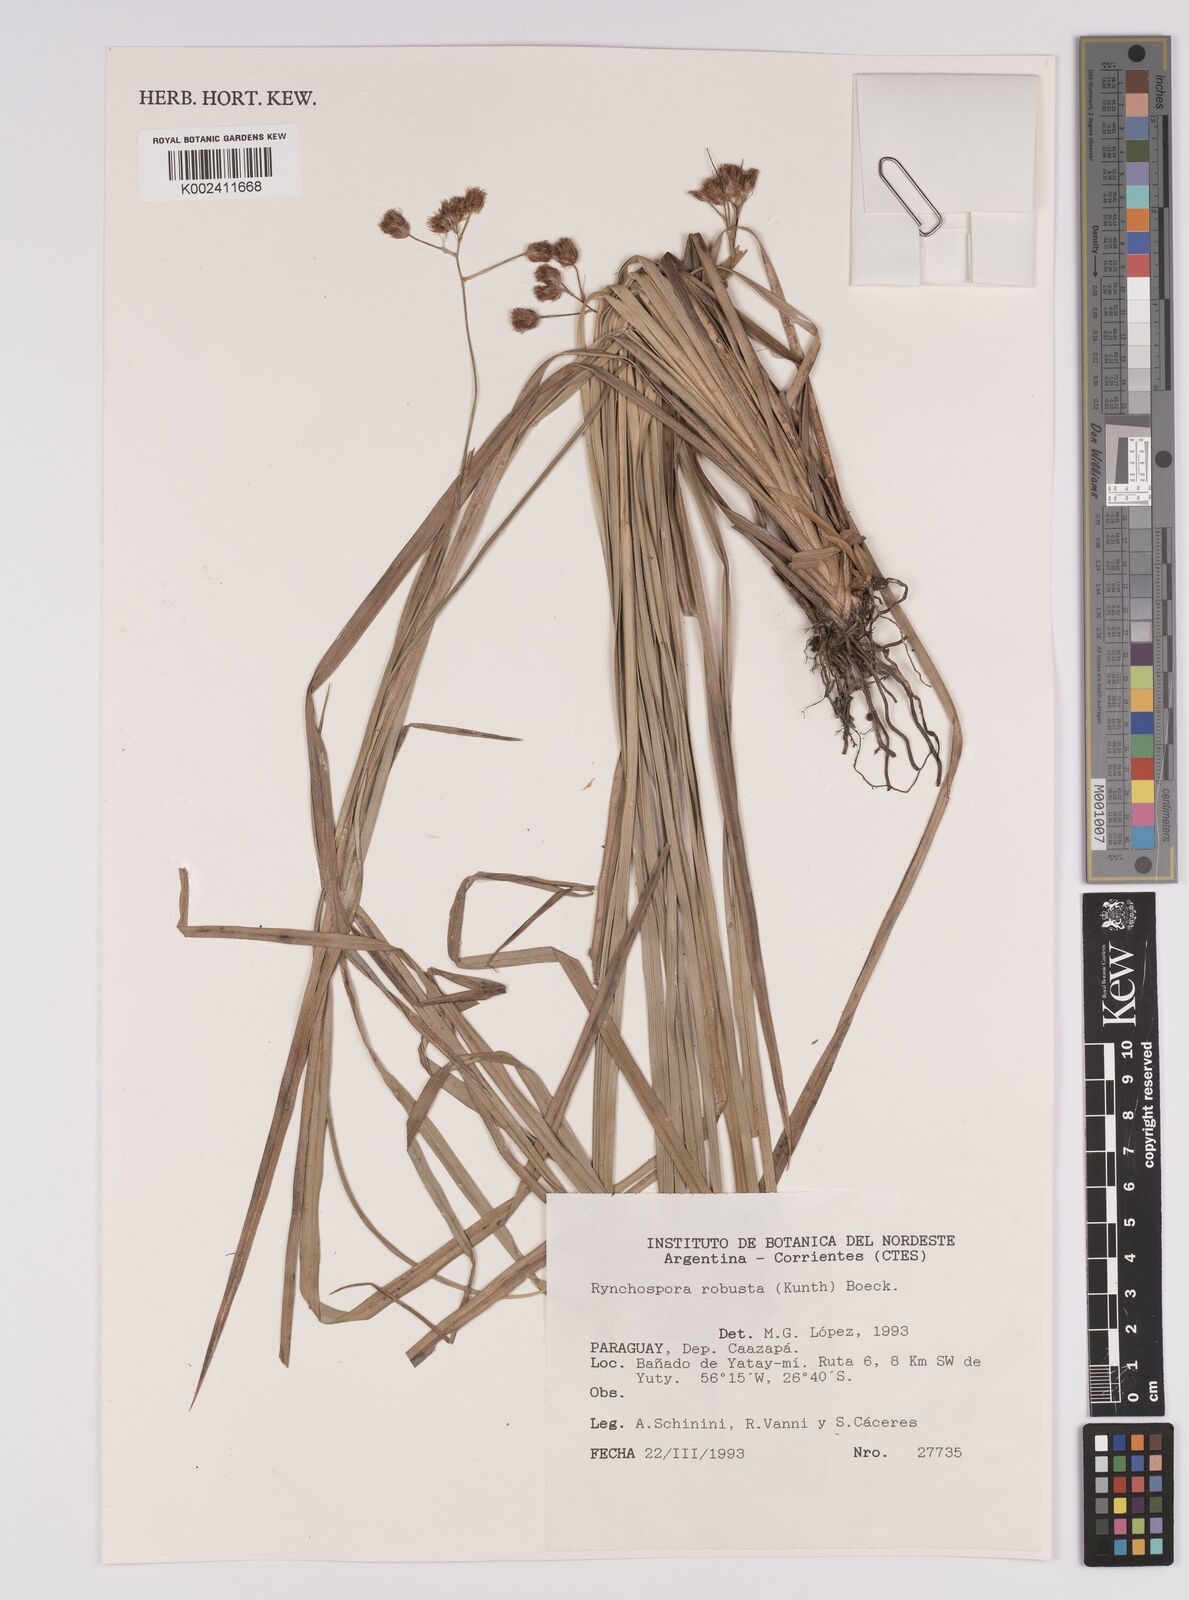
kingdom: Plantae
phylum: Tracheophyta
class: Liliopsida
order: Poales
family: Cyperaceae
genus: Rhynchospora
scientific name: Rhynchospora robusta
